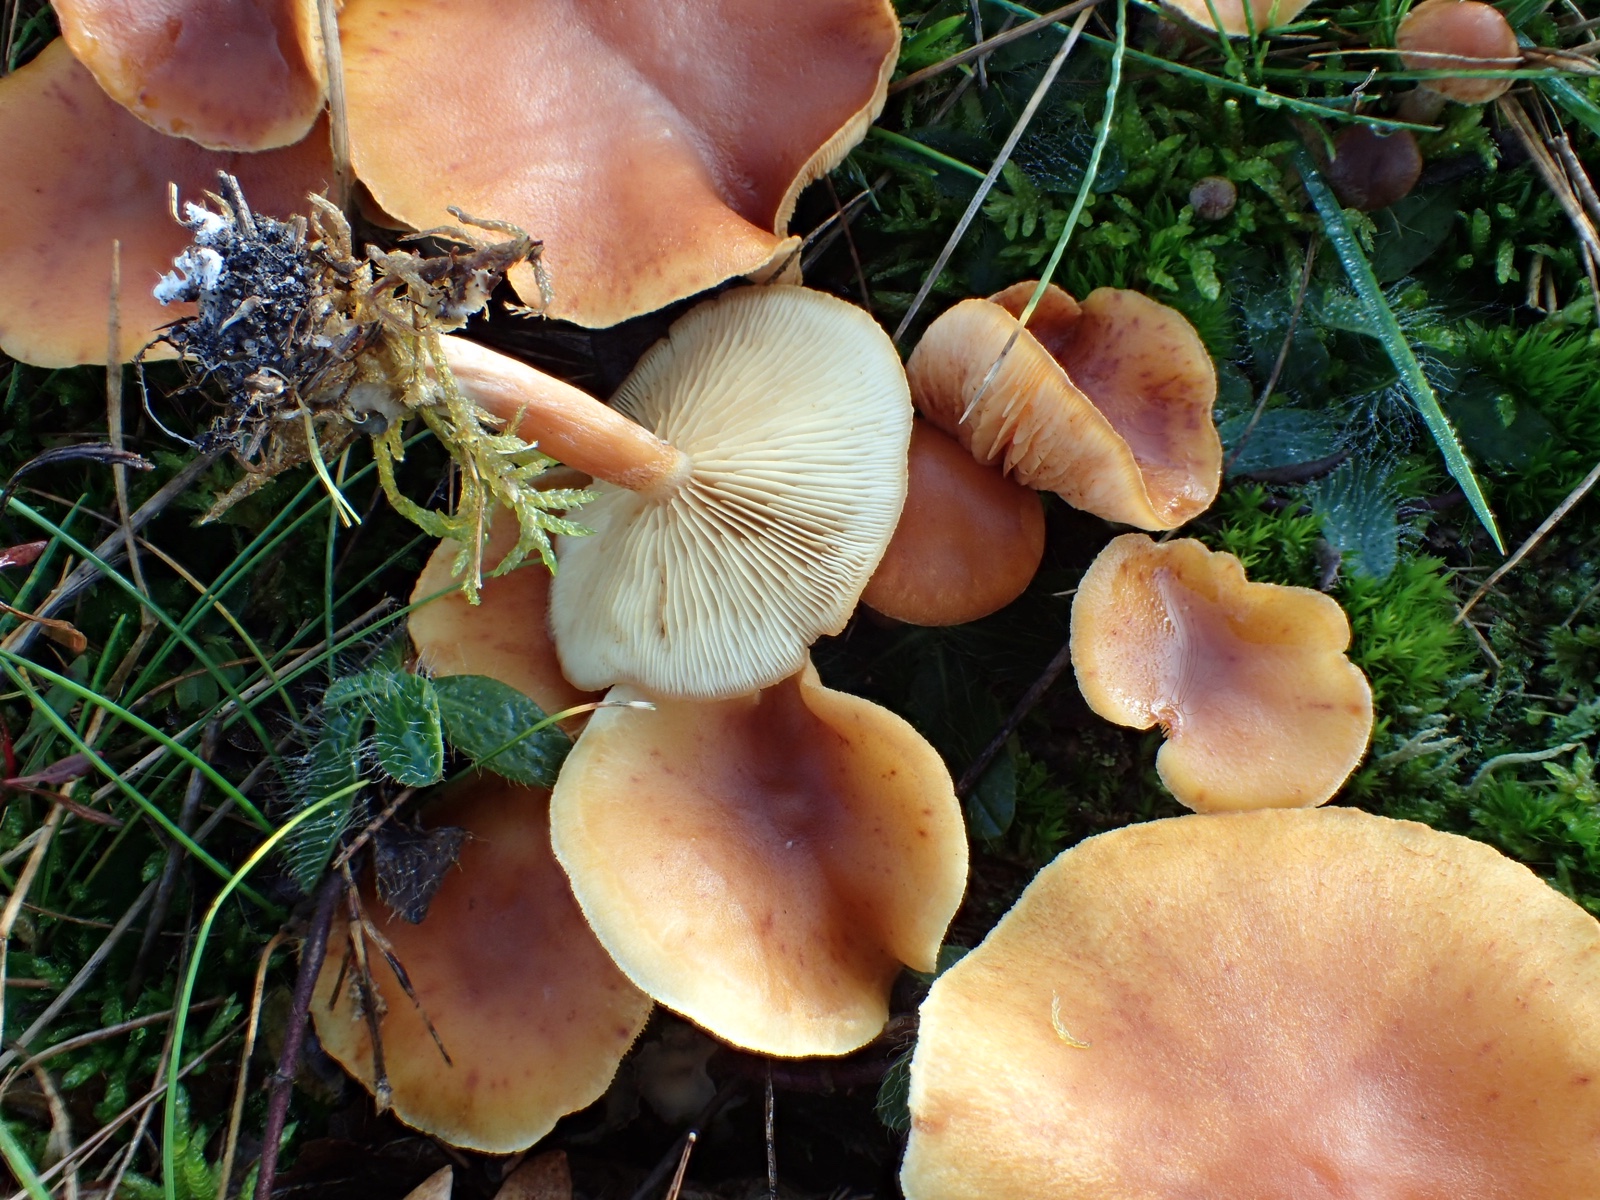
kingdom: Fungi
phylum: Basidiomycota
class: Agaricomycetes
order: Agaricales
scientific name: Agaricales
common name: champignonordenen
